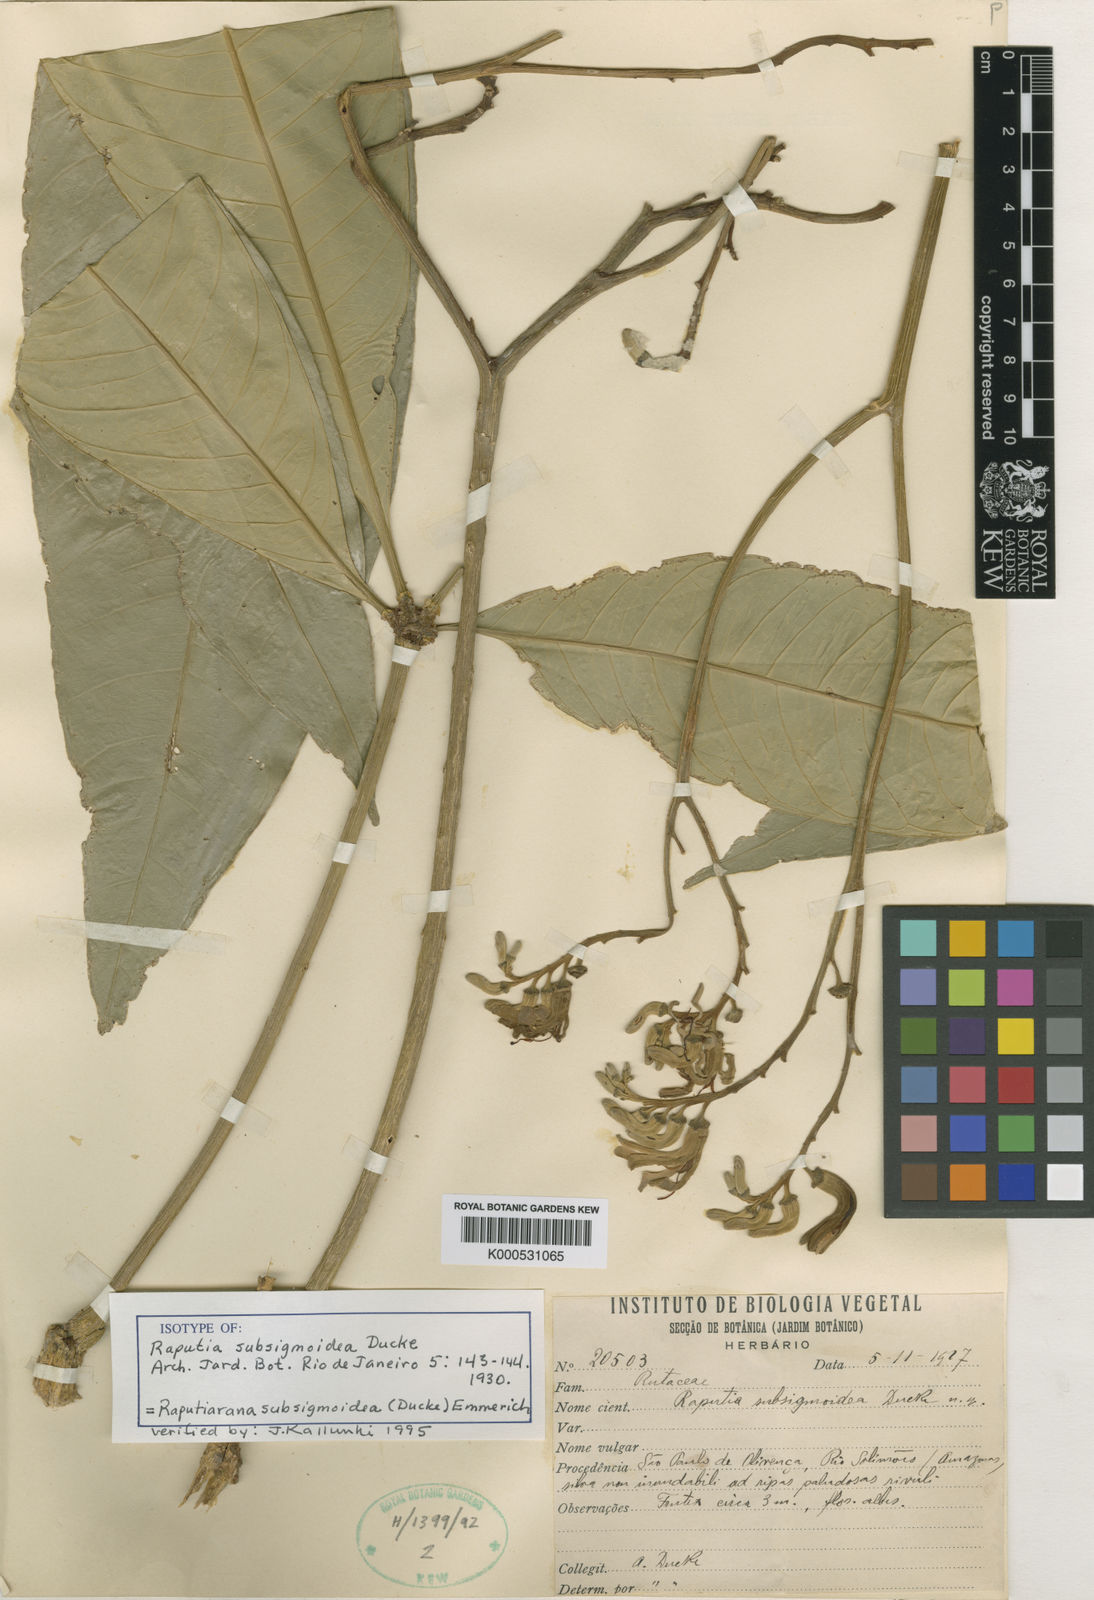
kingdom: Plantae
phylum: Tracheophyta
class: Magnoliopsida
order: Sapindales
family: Rutaceae
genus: Raputiarana
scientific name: Raputiarana subsigmoidea
